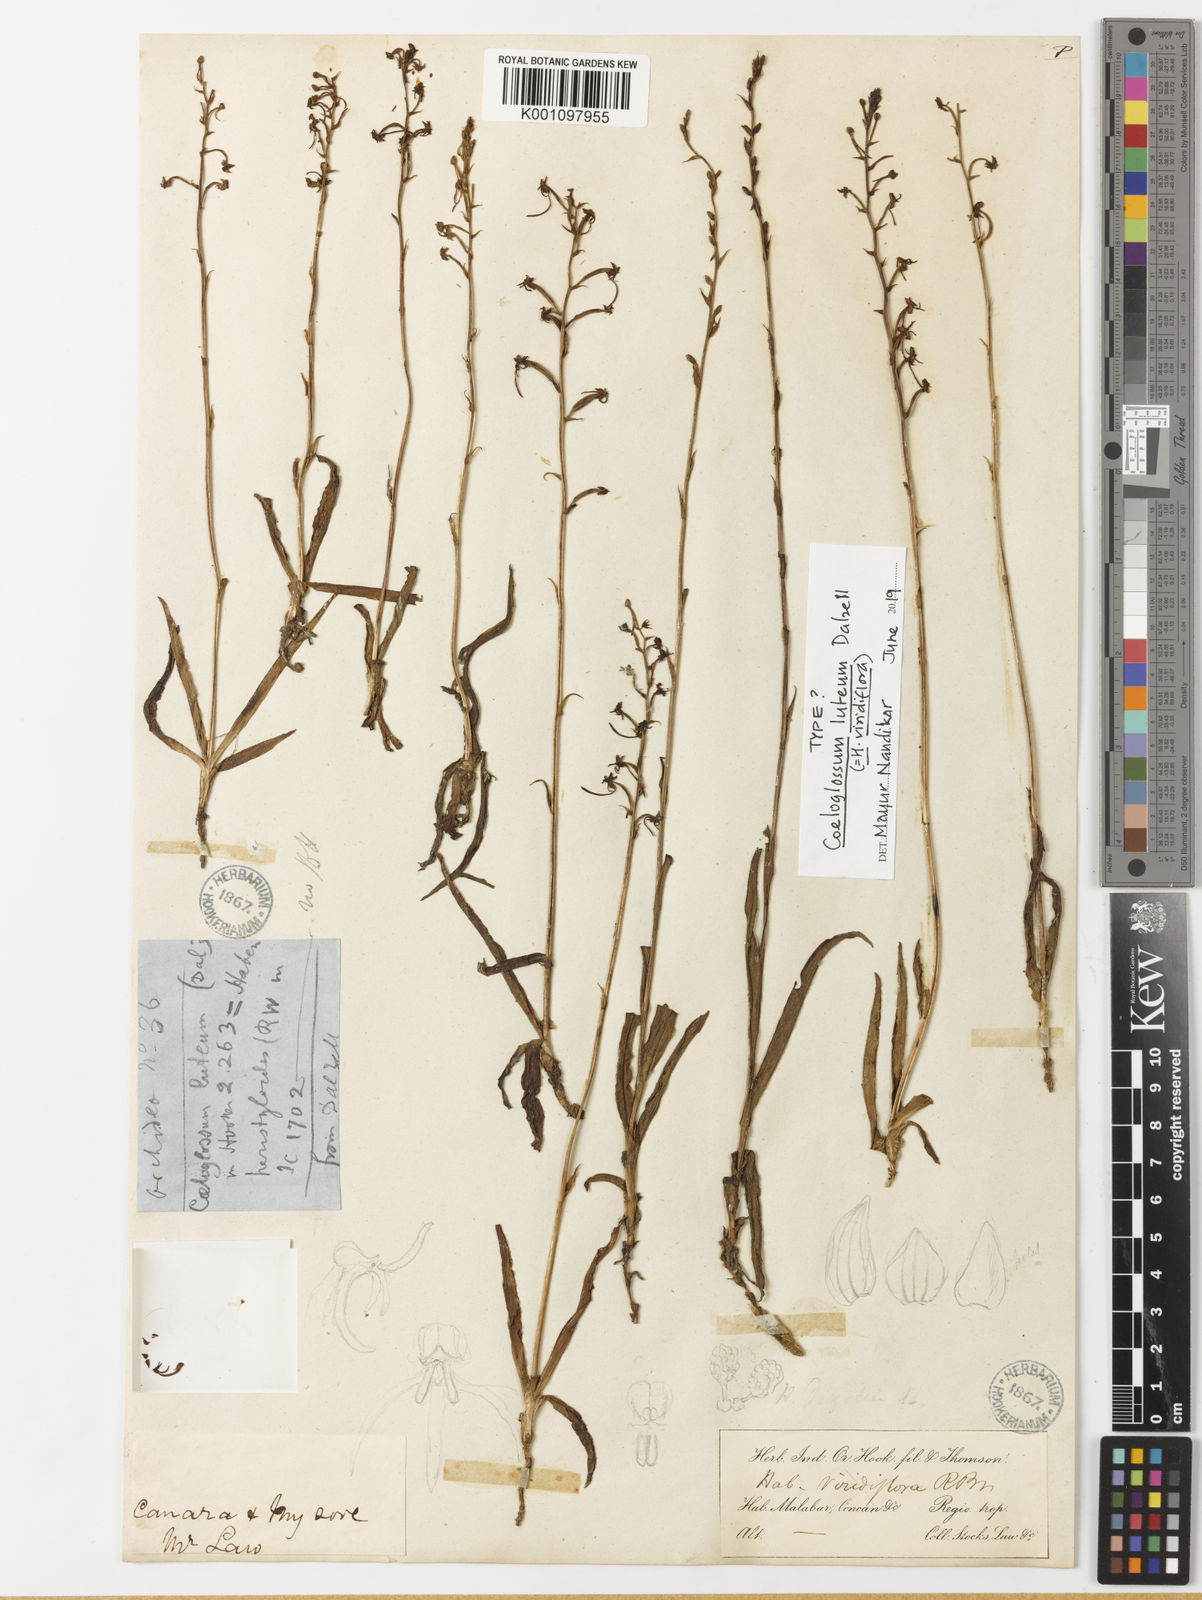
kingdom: Plantae
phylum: Tracheophyta
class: Liliopsida
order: Asparagales
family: Orchidaceae
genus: Habenaria
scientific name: Habenaria viridiflora
